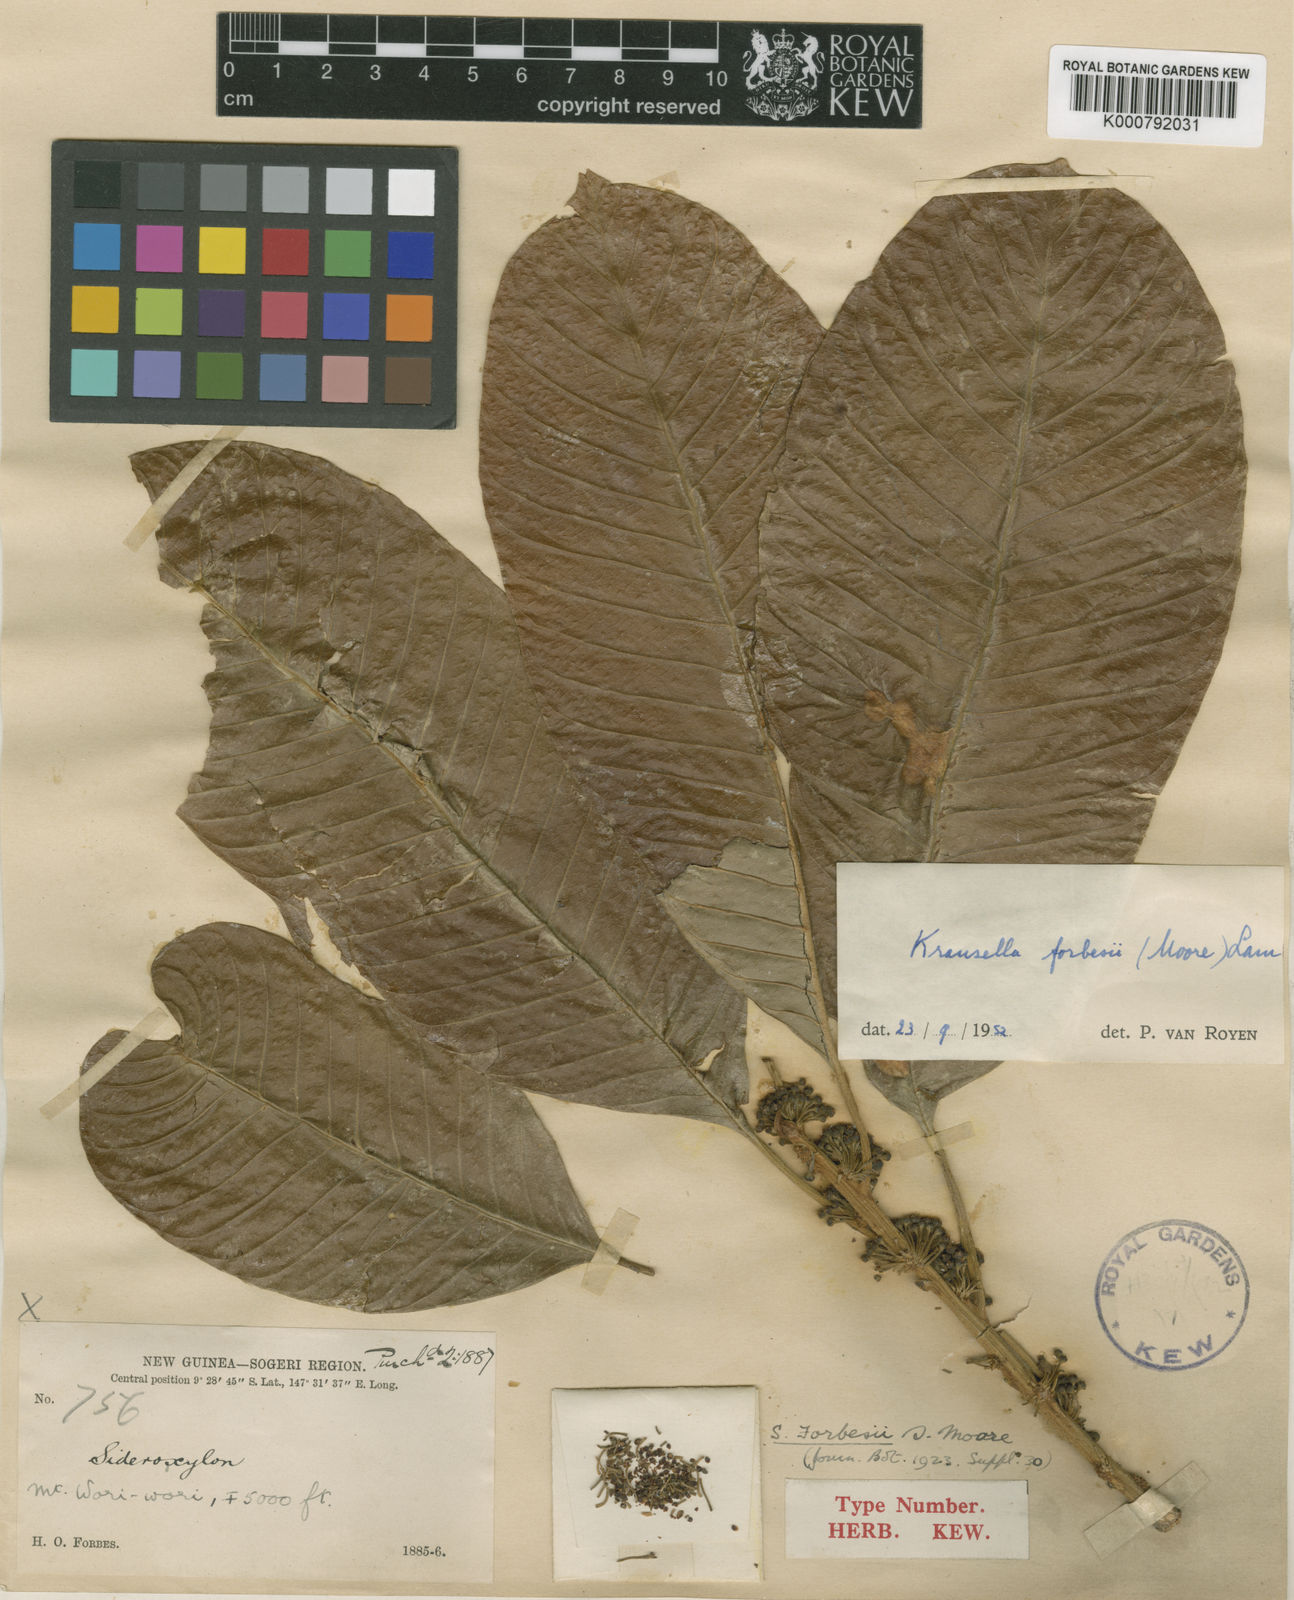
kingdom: Plantae
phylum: Tracheophyta
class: Magnoliopsida
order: Ericales
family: Sapotaceae
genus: Planchonella
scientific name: Planchonella forbesii
